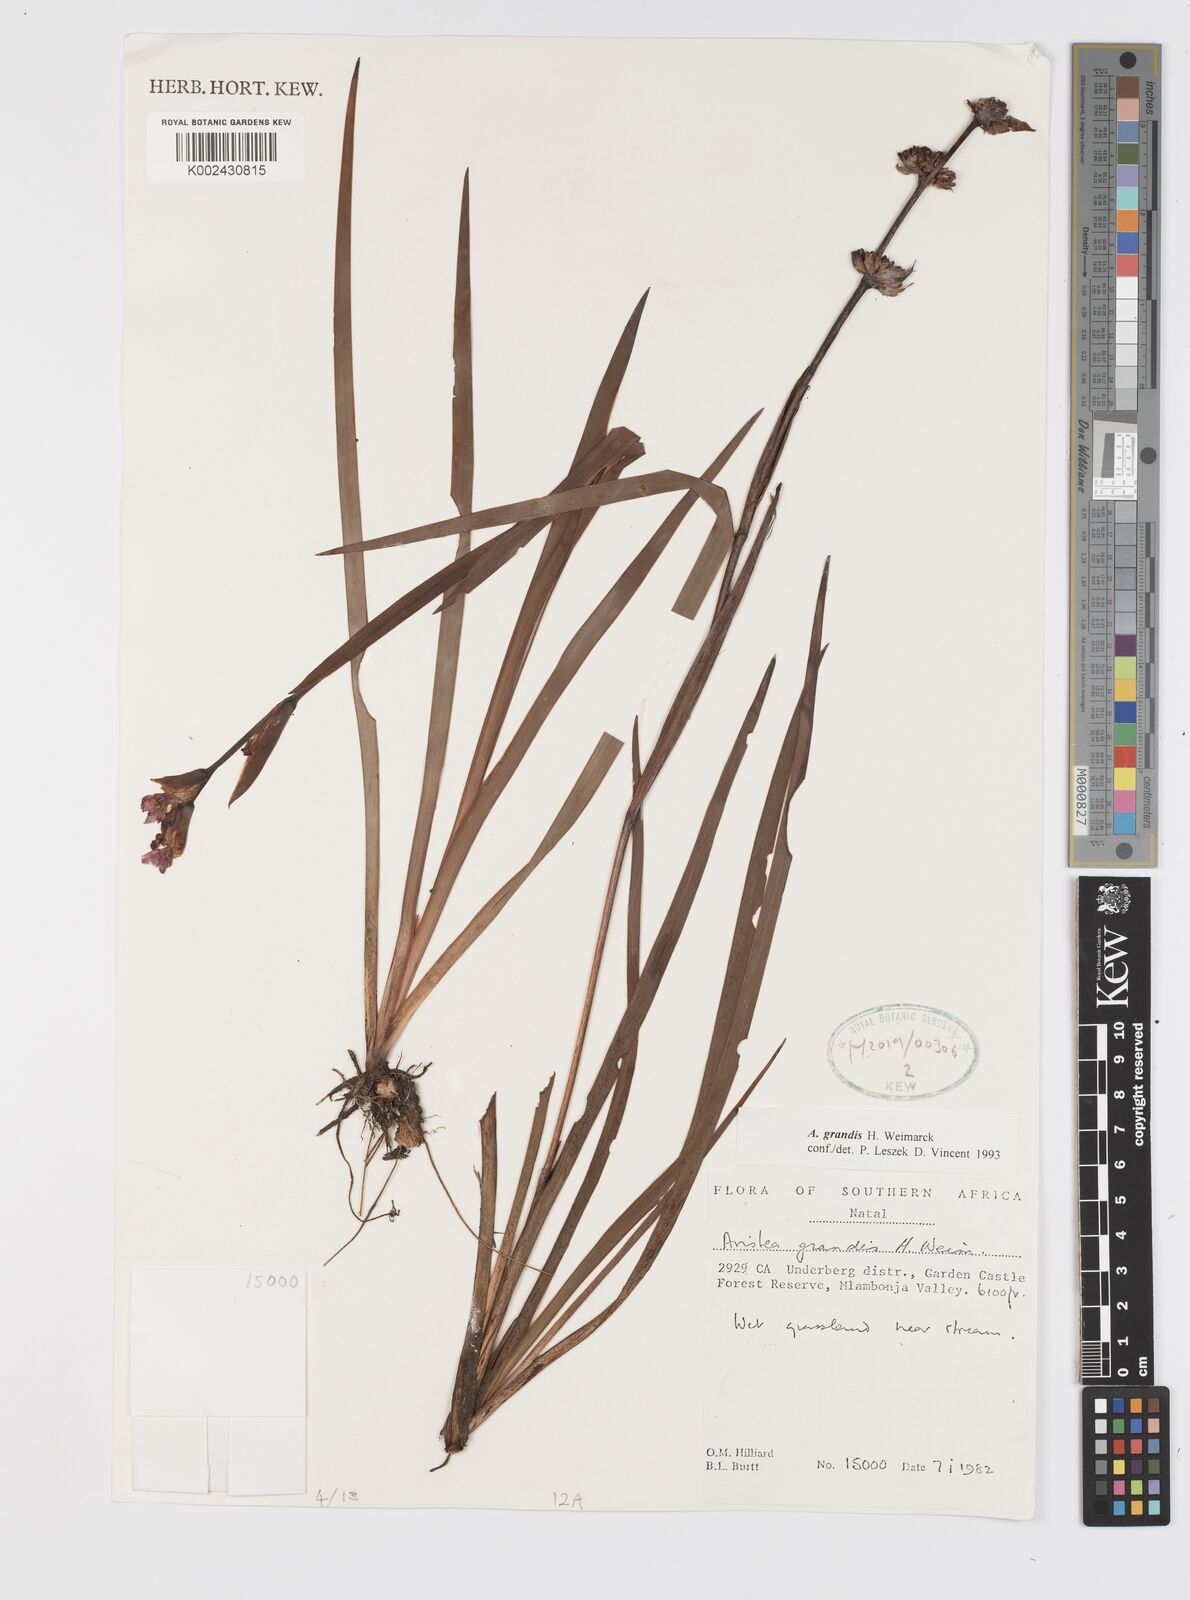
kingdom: Plantae
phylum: Tracheophyta
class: Liliopsida
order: Asparagales
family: Iridaceae
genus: Aristea
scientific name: Aristea grandis
